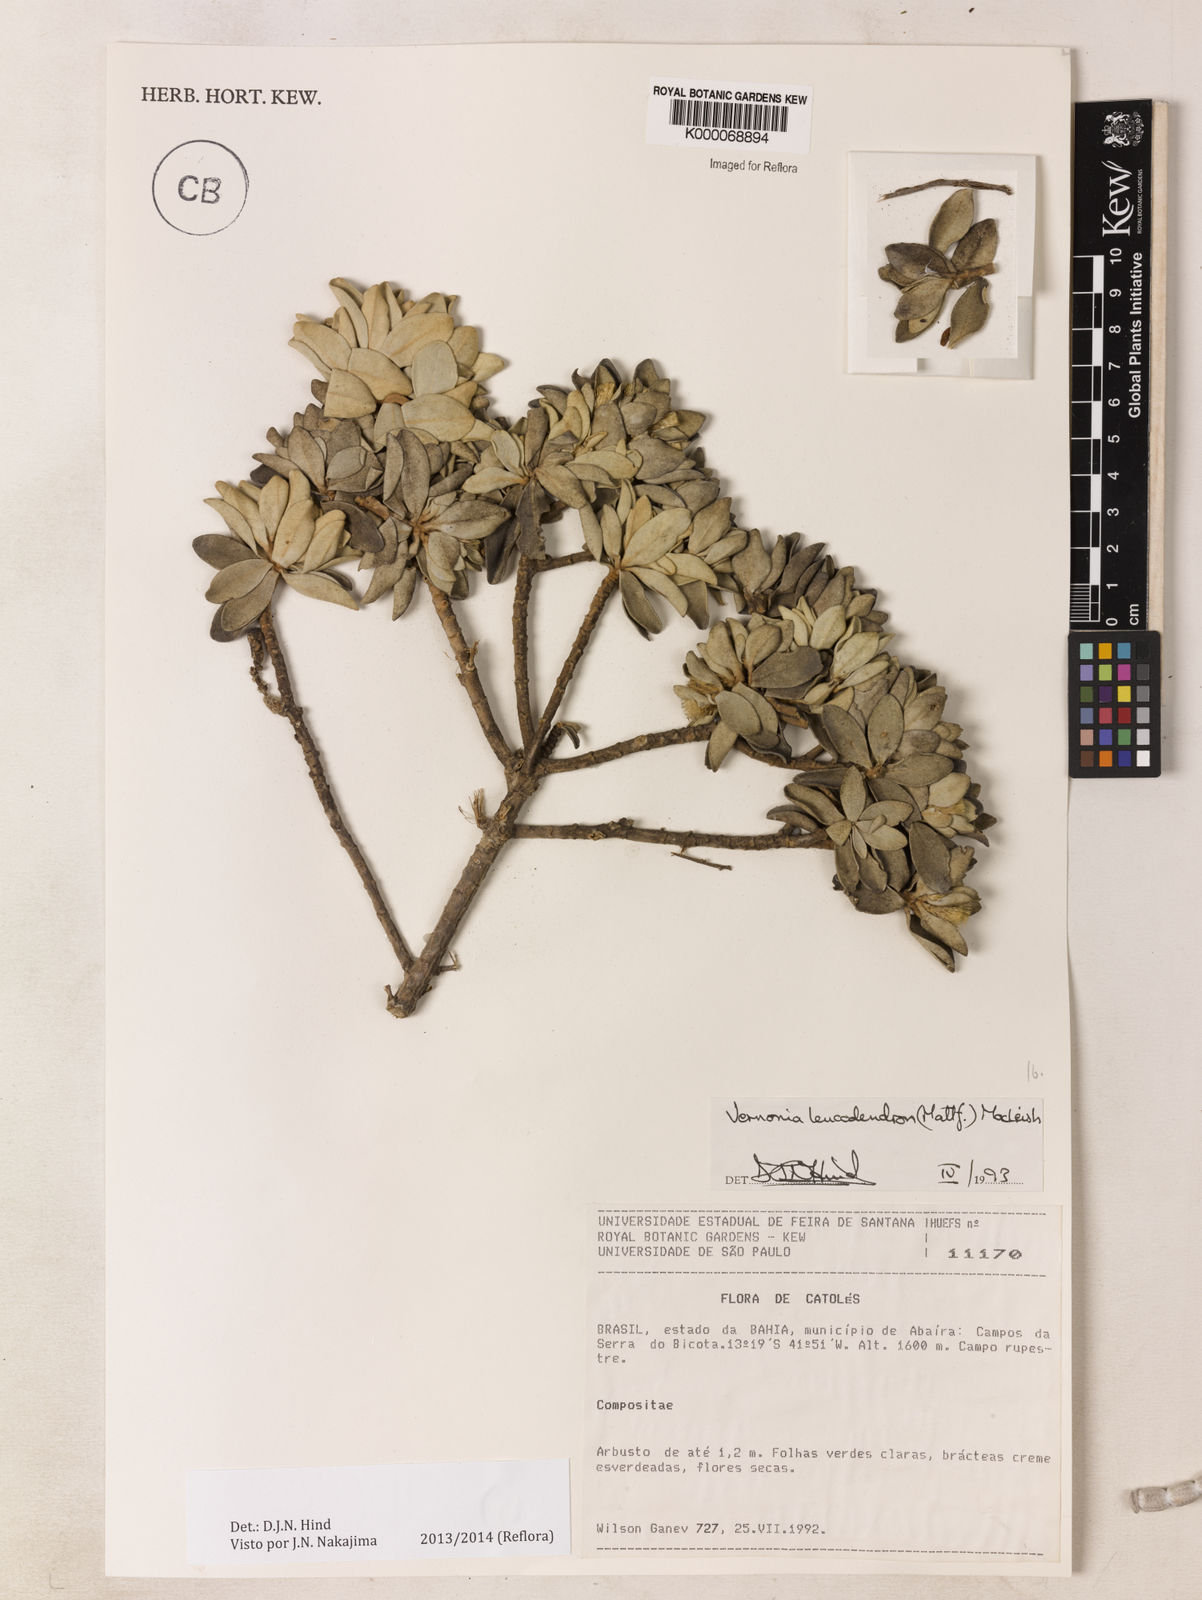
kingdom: Plantae
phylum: Tracheophyta
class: Magnoliopsida
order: Asterales
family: Asteraceae
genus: Lychnophorella
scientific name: Lychnophorella leucodendron
